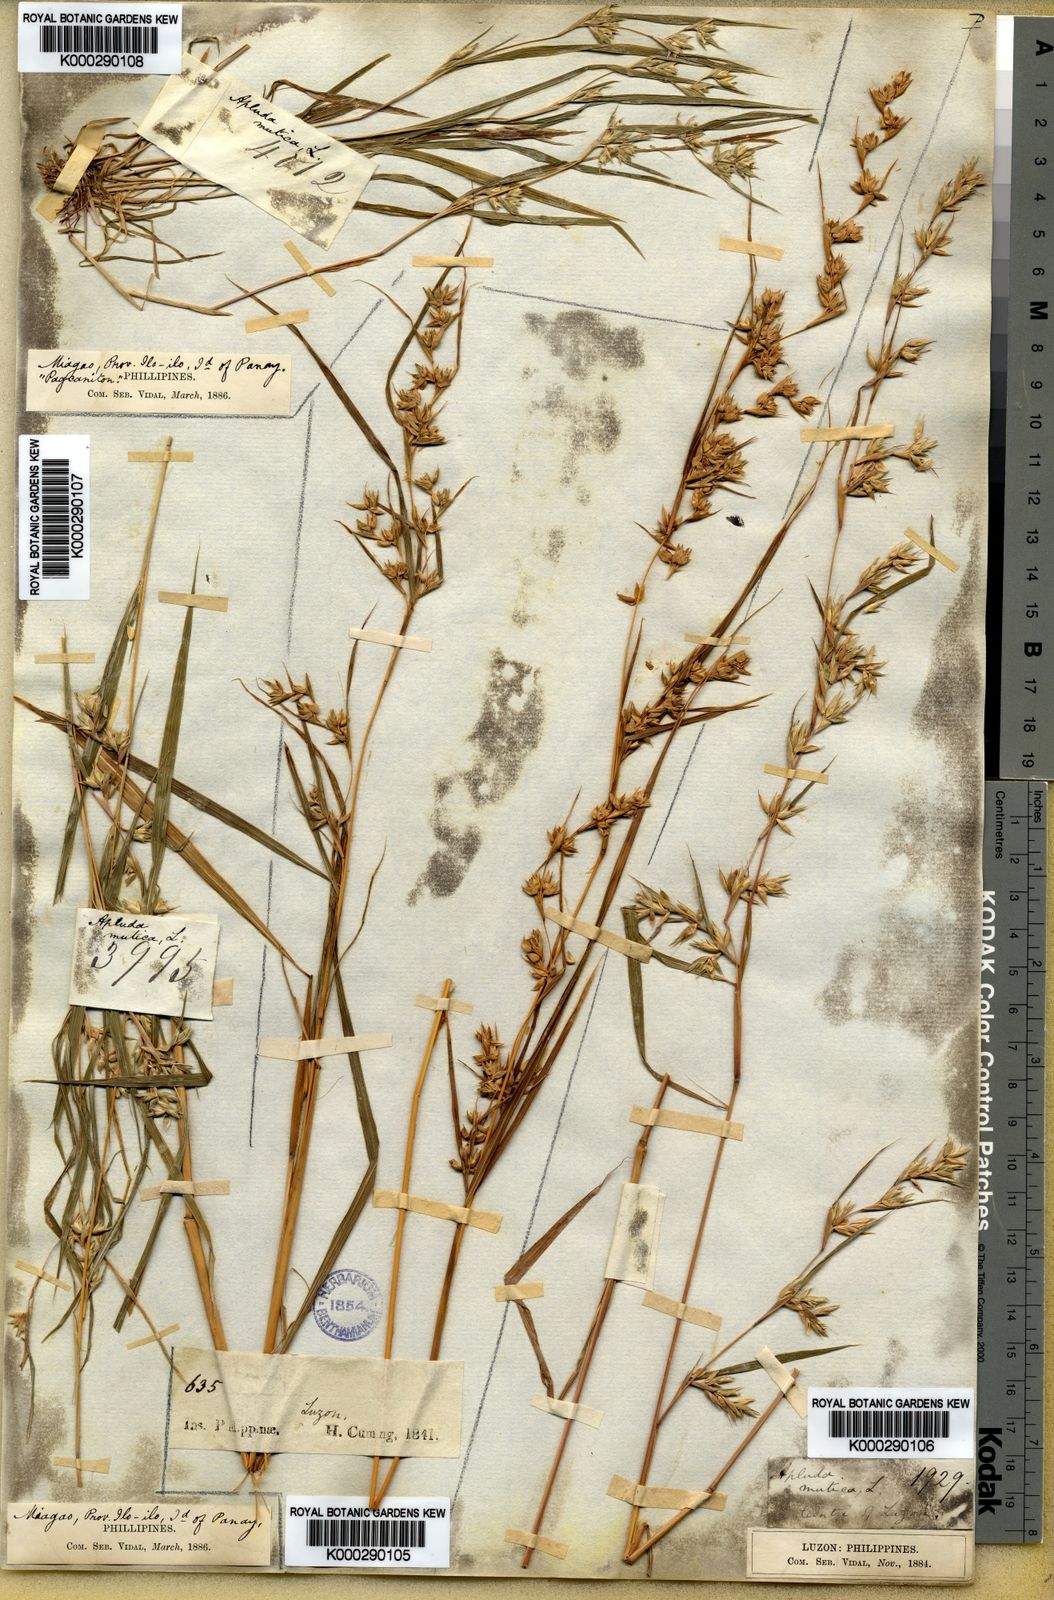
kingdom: Plantae
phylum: Tracheophyta
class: Liliopsida
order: Poales
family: Poaceae
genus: Apluda
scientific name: Apluda mutica
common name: Mauritian grass
